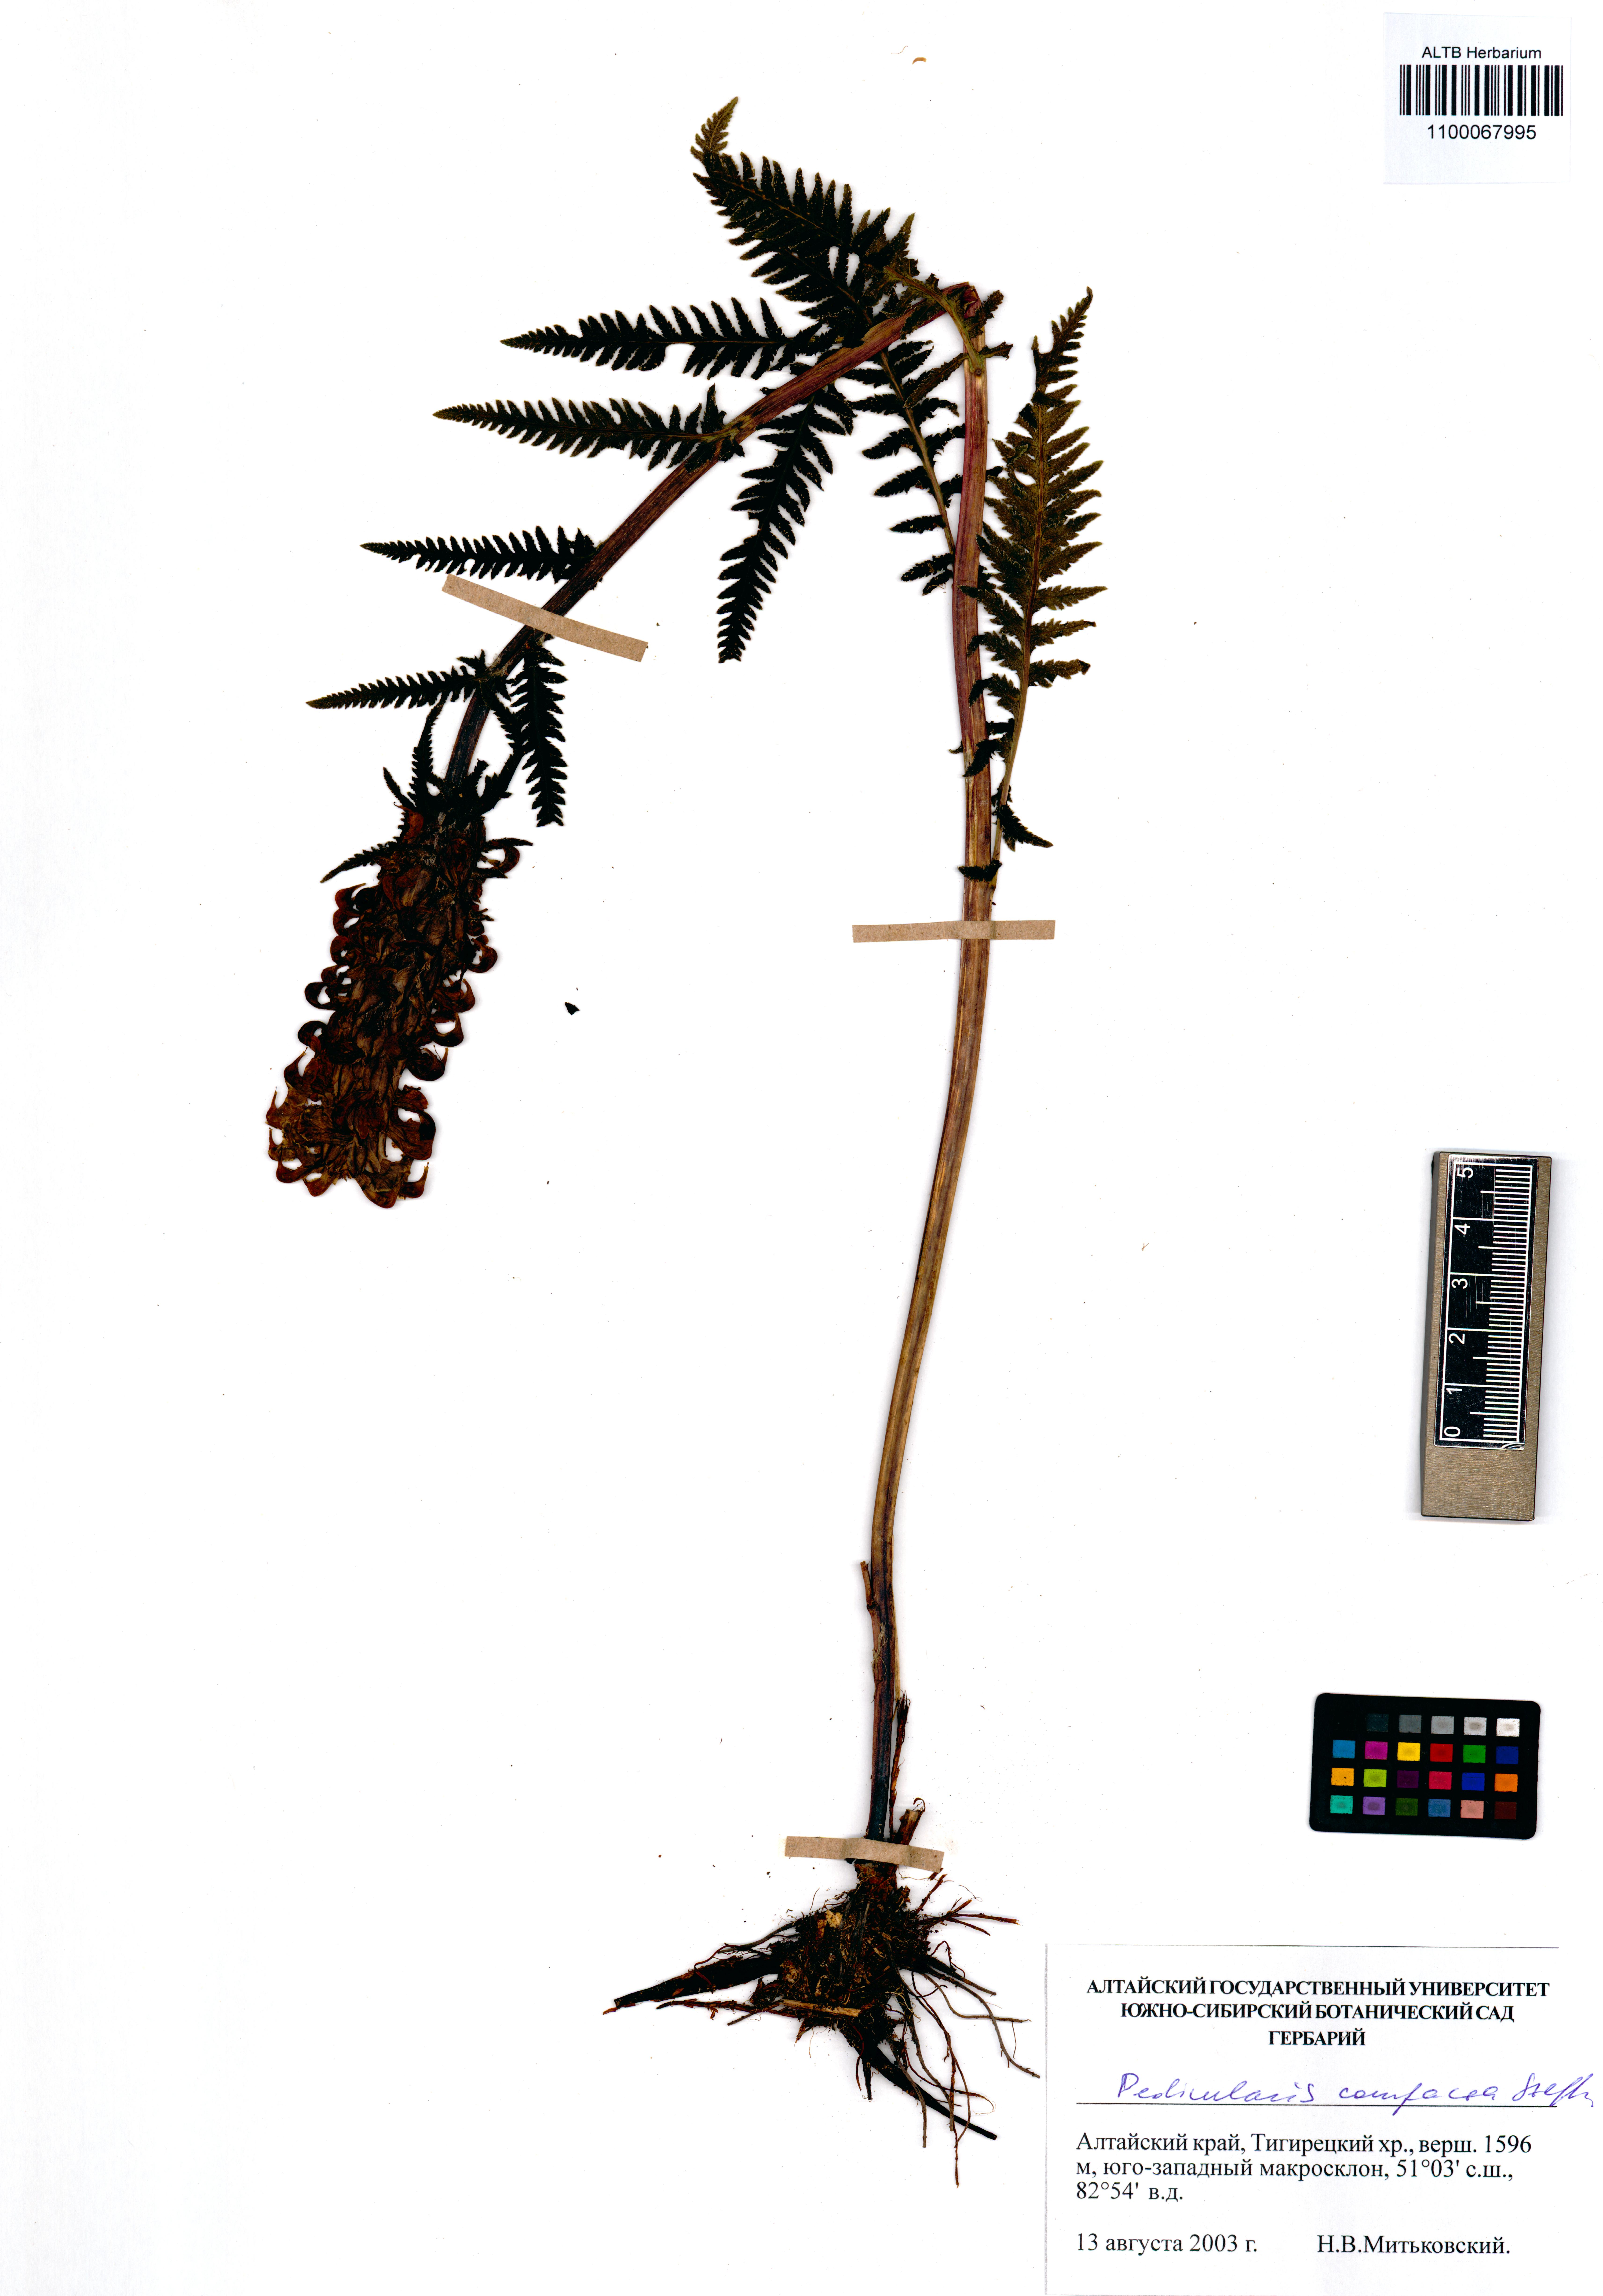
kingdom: Plantae
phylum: Tracheophyta
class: Magnoliopsida
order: Lamiales
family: Orobanchaceae
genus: Pedicularis
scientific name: Pedicularis compacta
